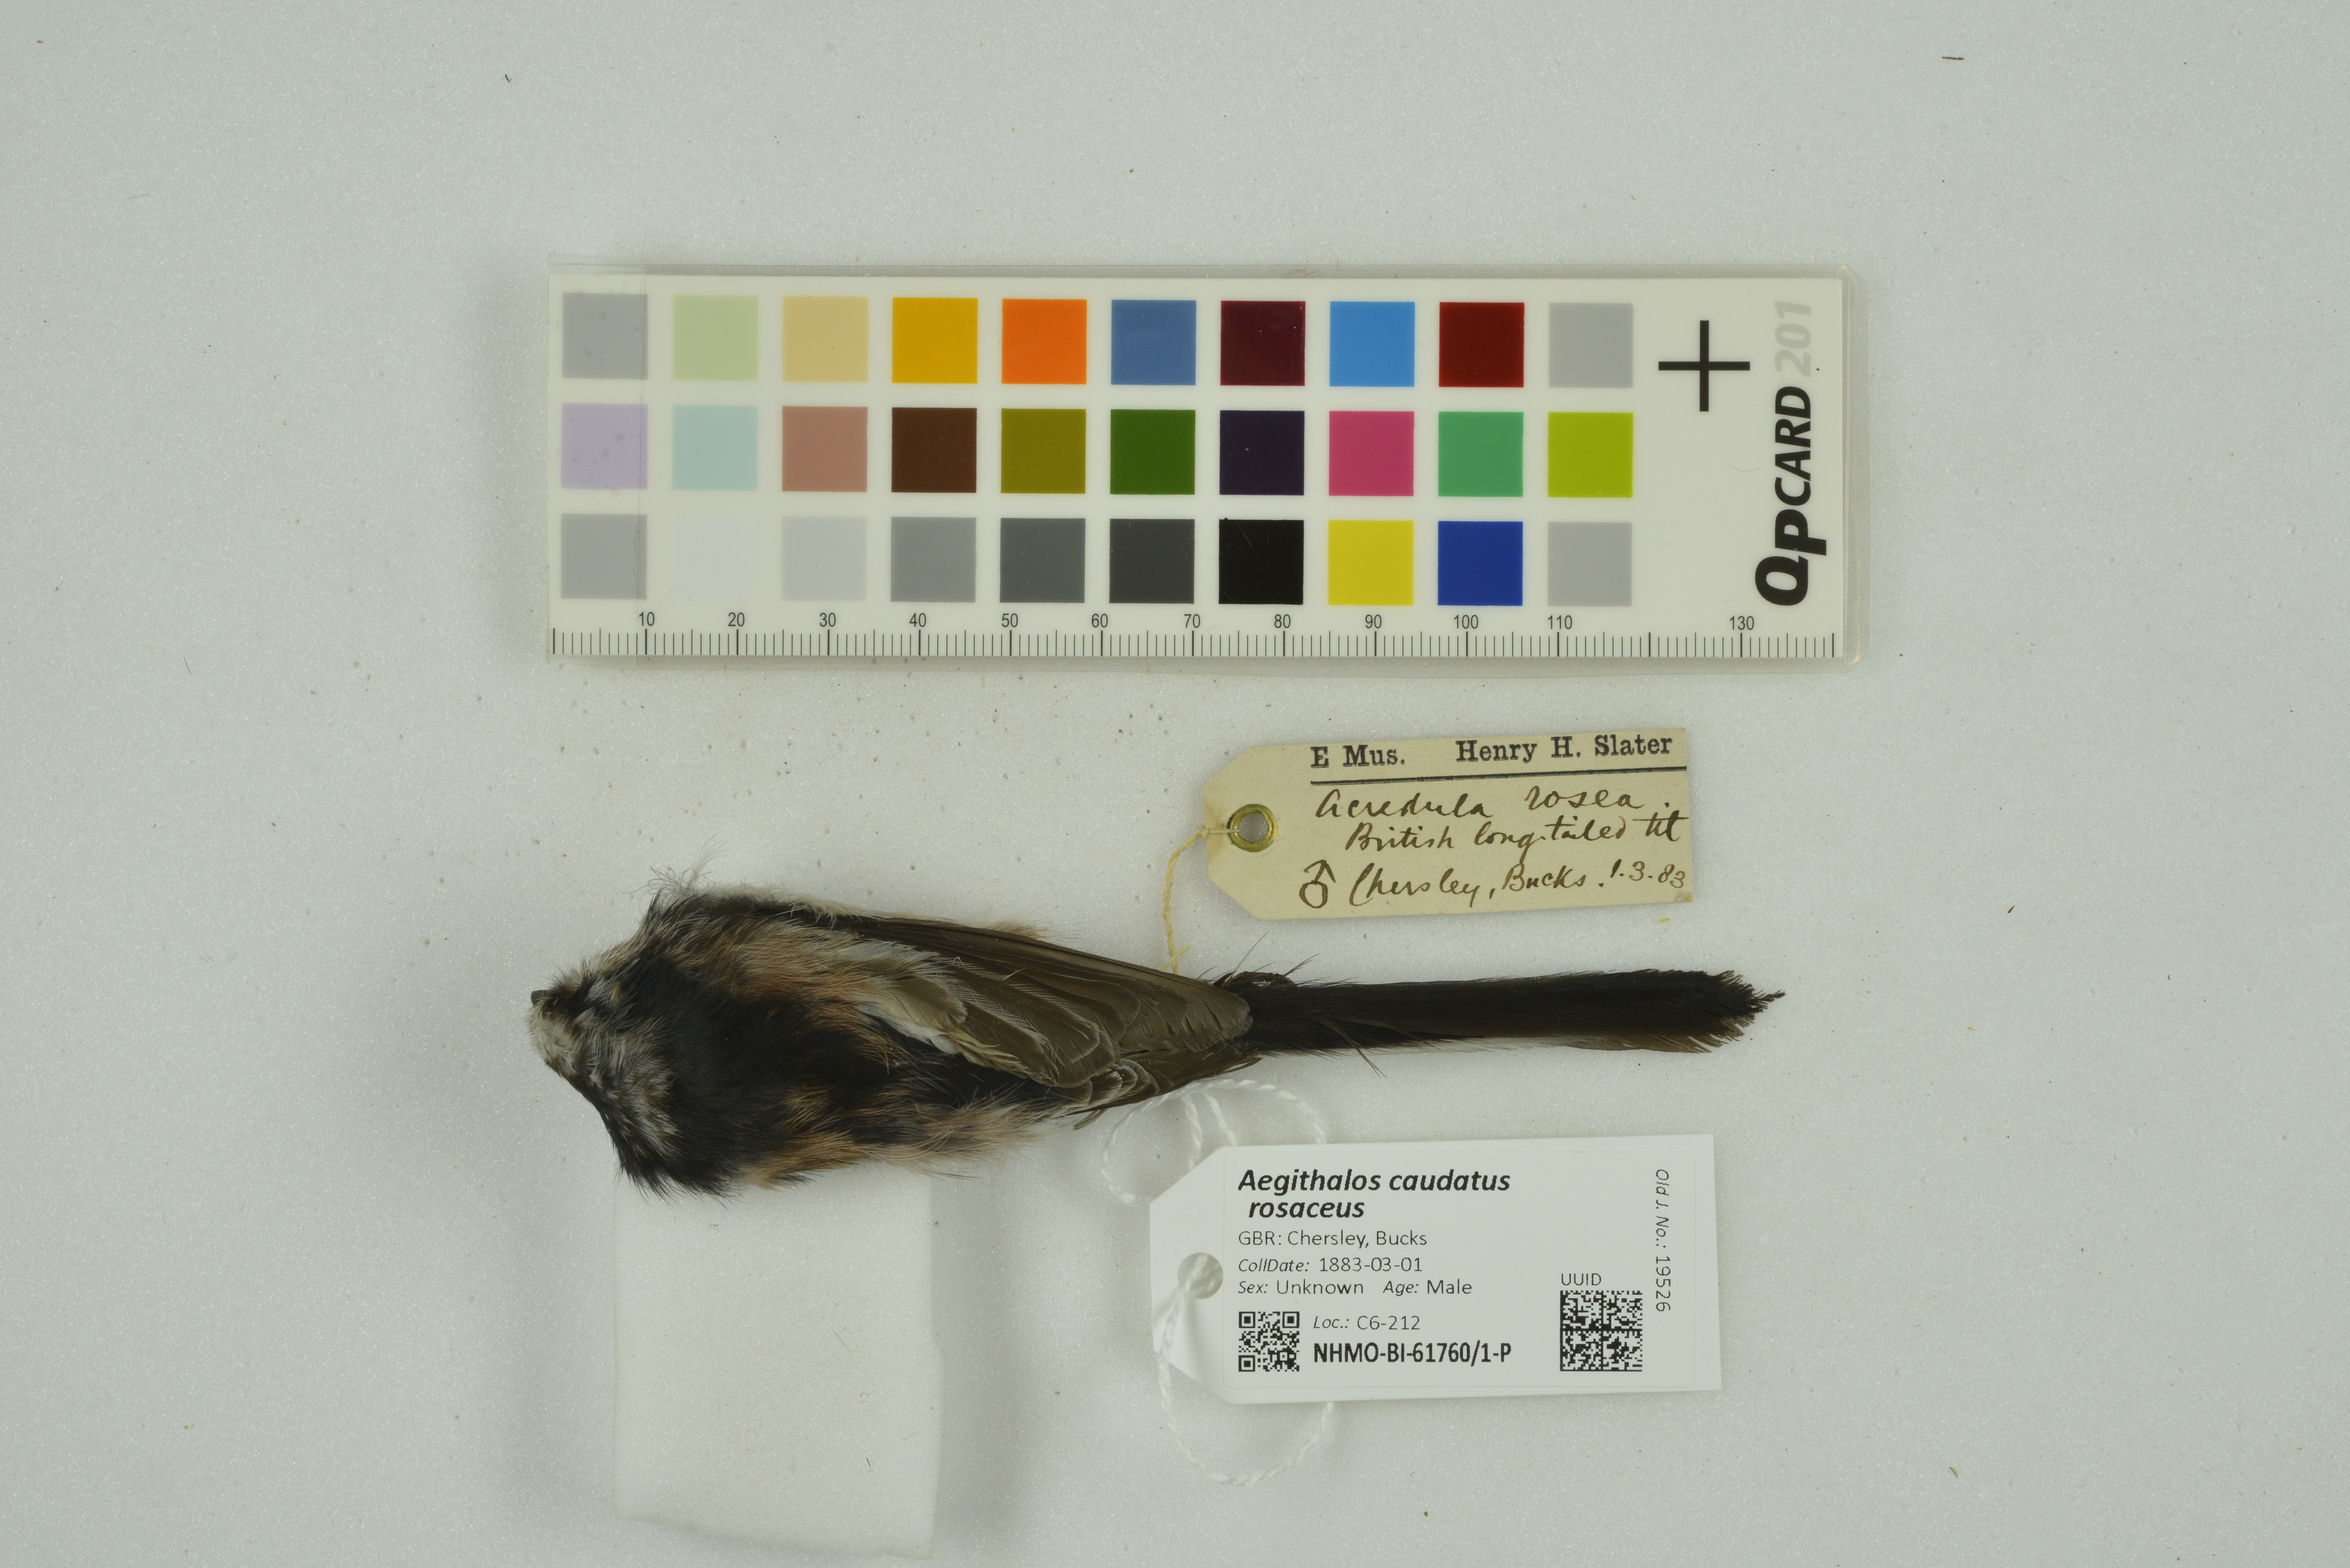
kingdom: Animalia
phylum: Chordata
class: Aves
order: Passeriformes
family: Aegithalidae
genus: Aegithalos
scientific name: Aegithalos caudatus
